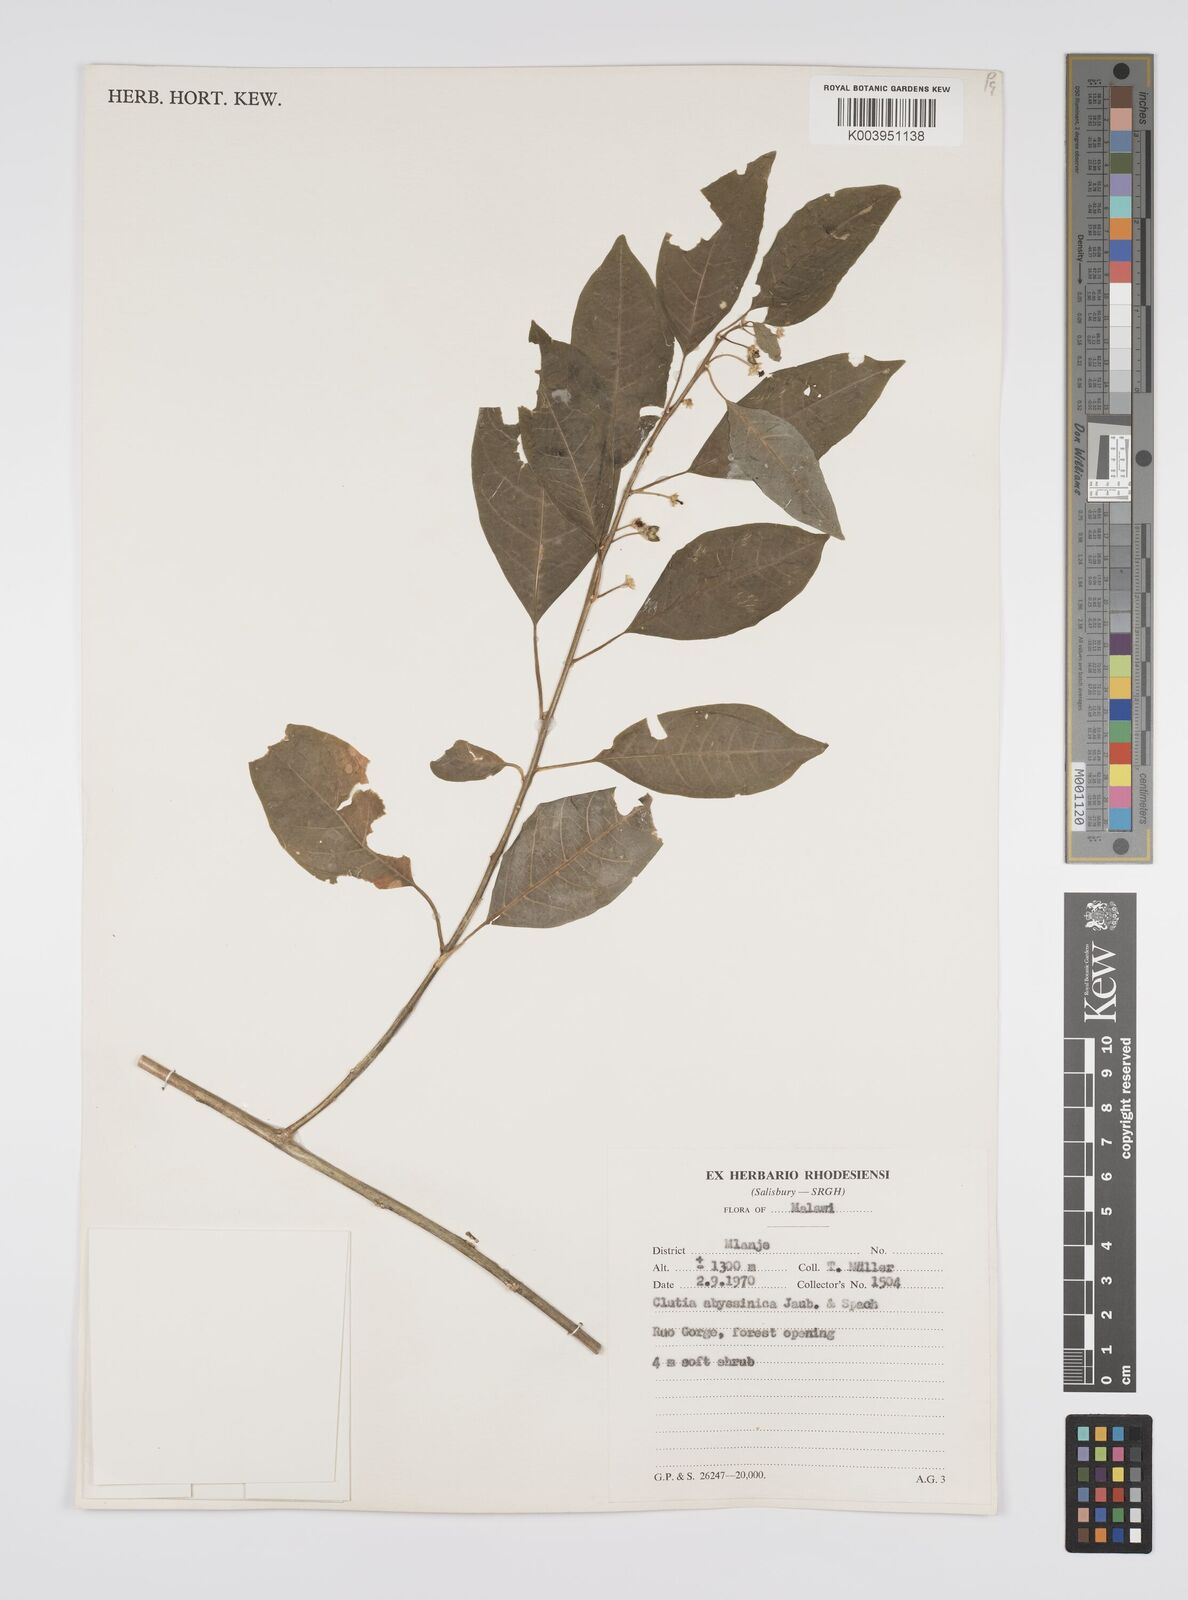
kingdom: Plantae
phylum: Tracheophyta
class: Magnoliopsida
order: Malpighiales
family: Peraceae
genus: Clutia
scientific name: Clutia abyssinica
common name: Large lightning bush
